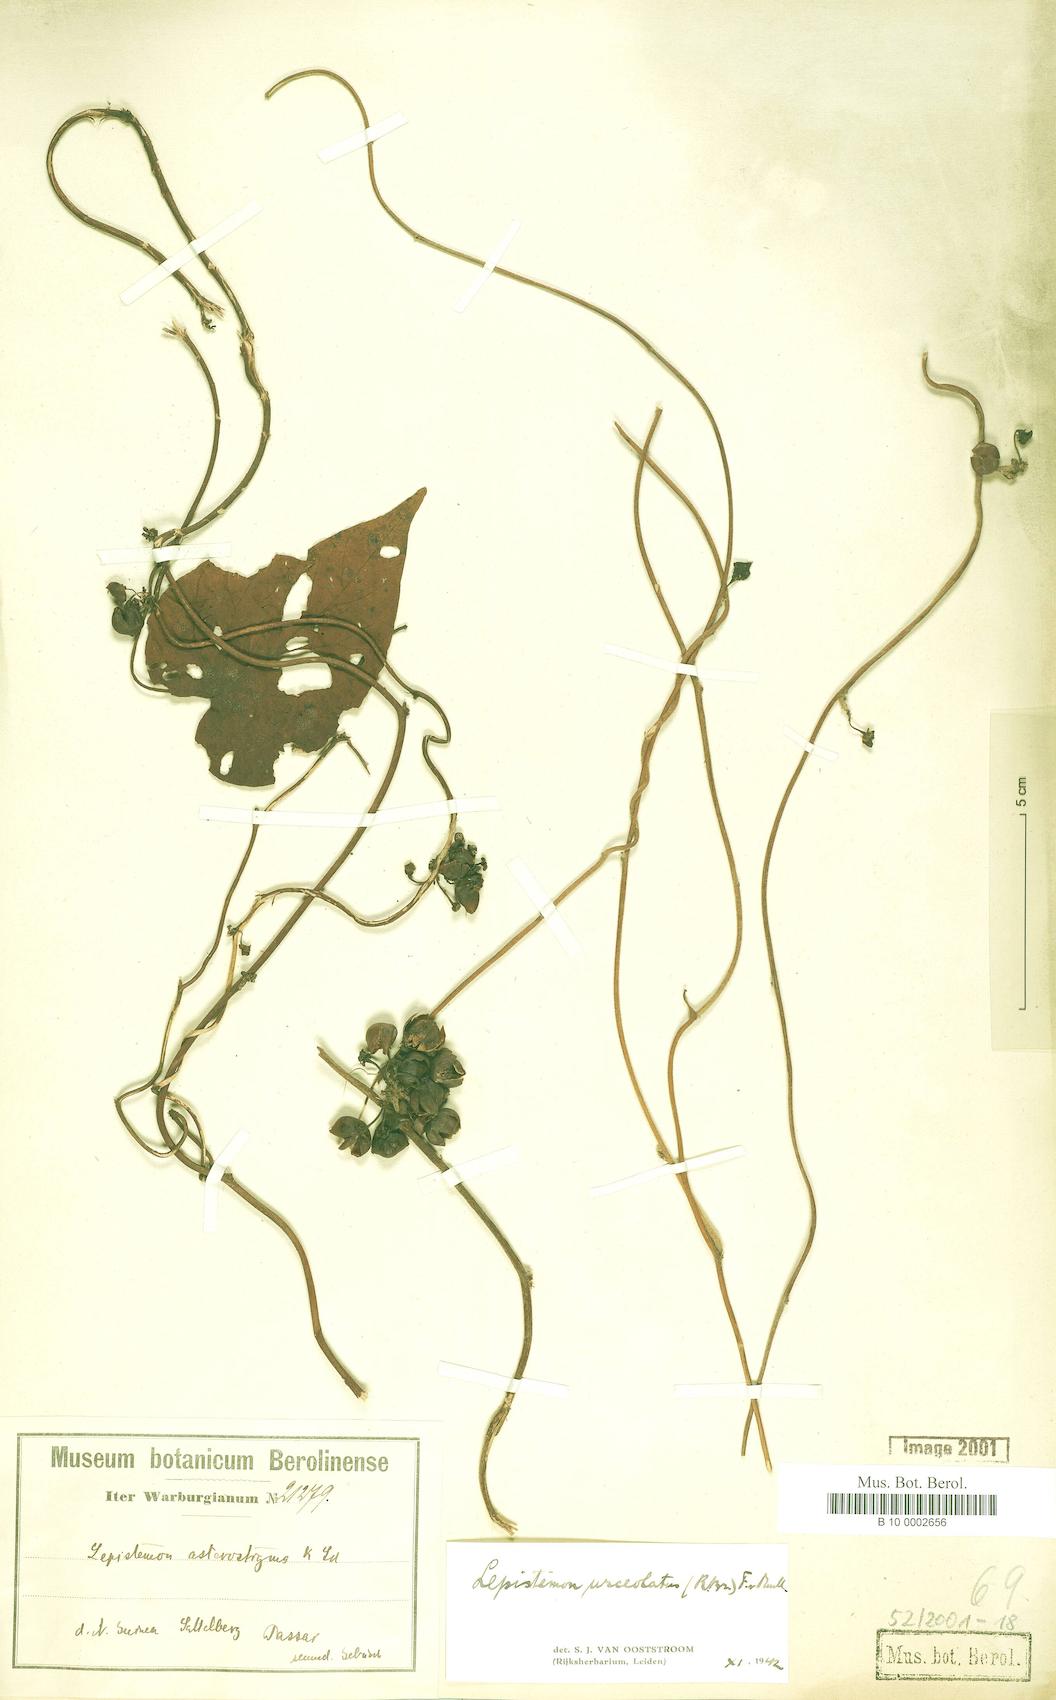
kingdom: Plantae
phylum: Tracheophyta
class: Magnoliopsida
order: Solanales
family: Convolvulaceae
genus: Lepistemon
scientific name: Lepistemon urceolatus
